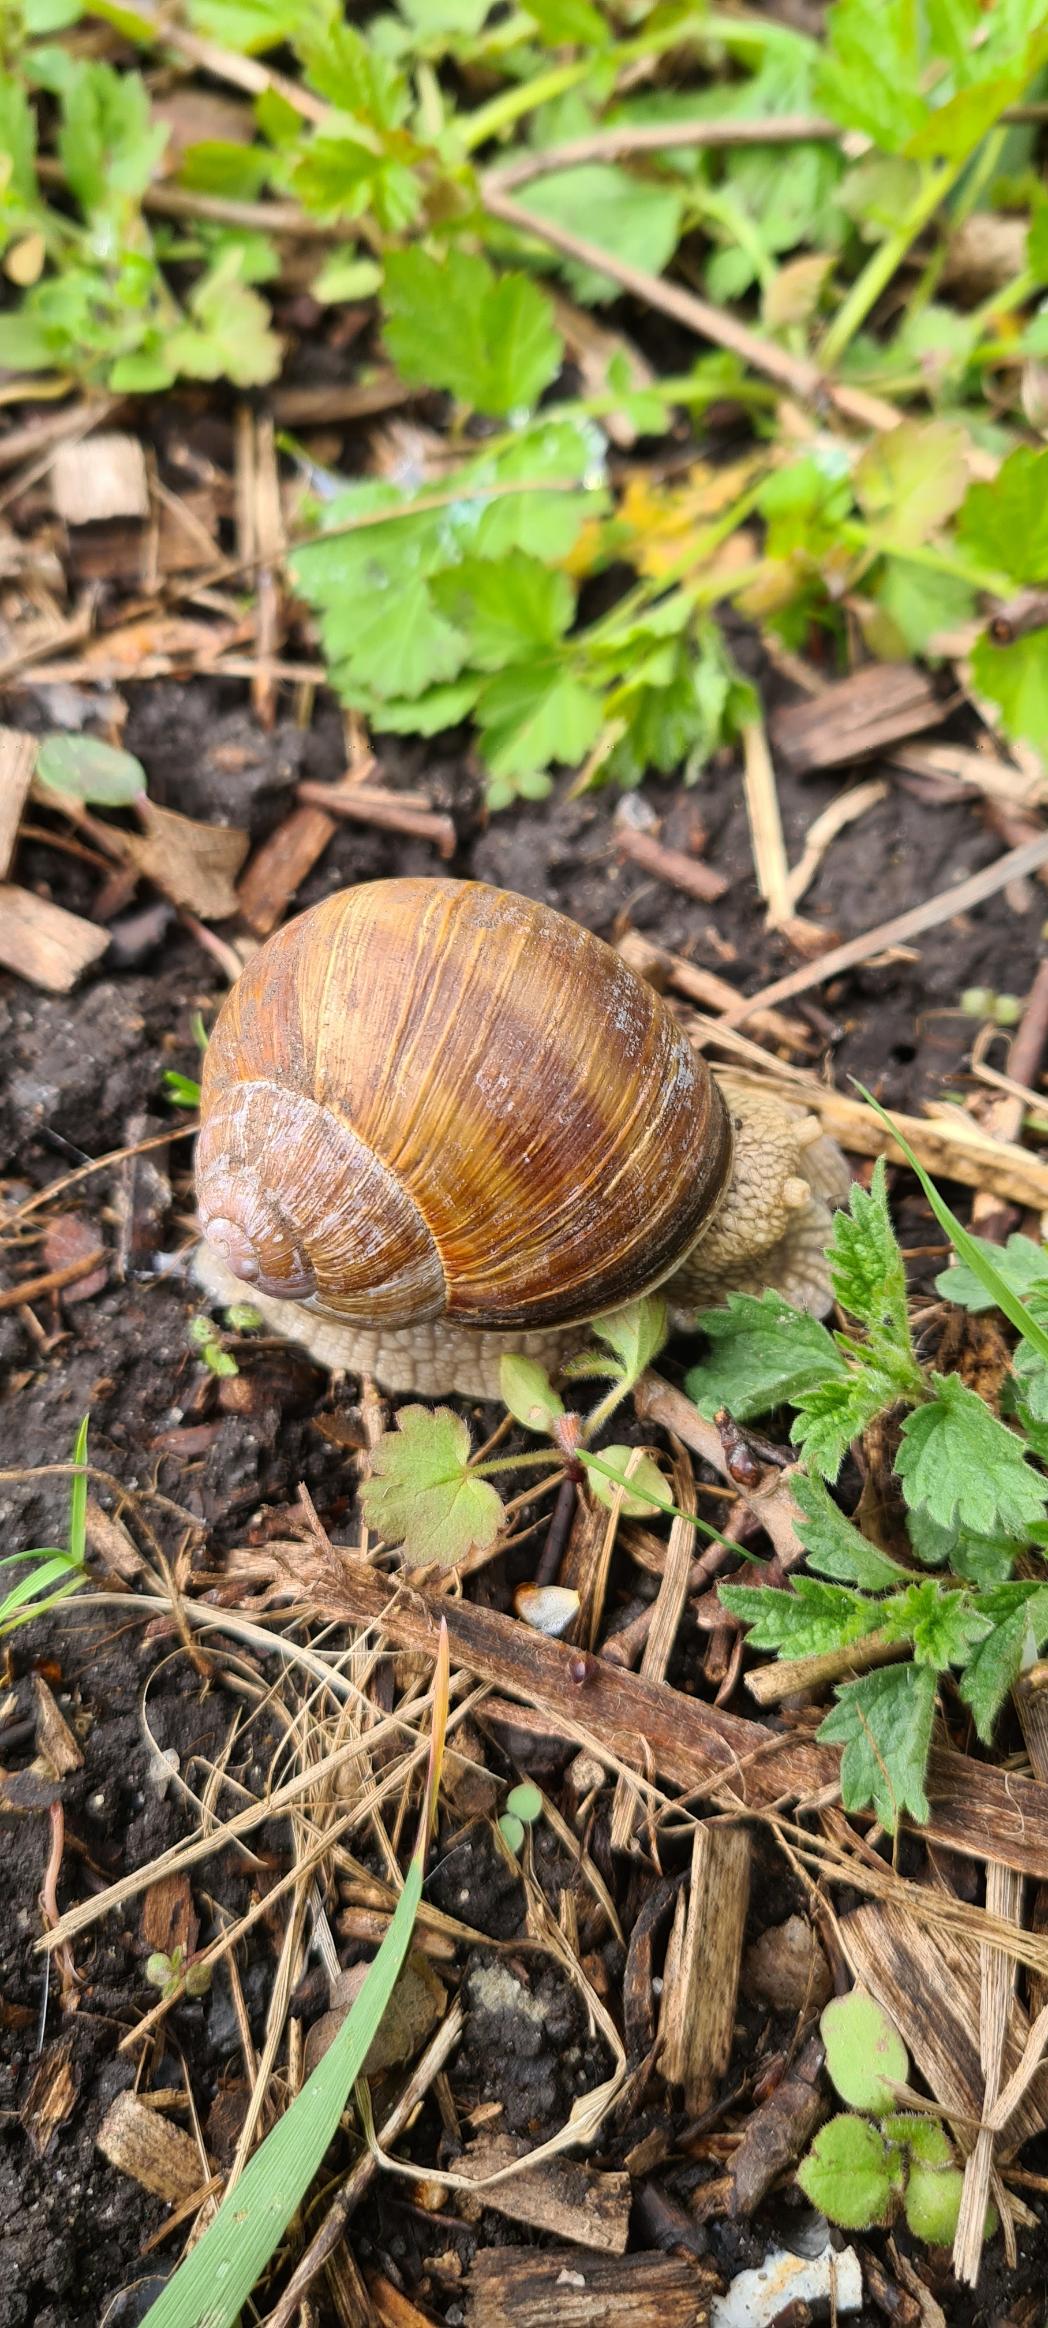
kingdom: Animalia
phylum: Mollusca
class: Gastropoda
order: Stylommatophora
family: Helicidae
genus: Helix
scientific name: Helix pomatia
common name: Vinbjergsnegl
